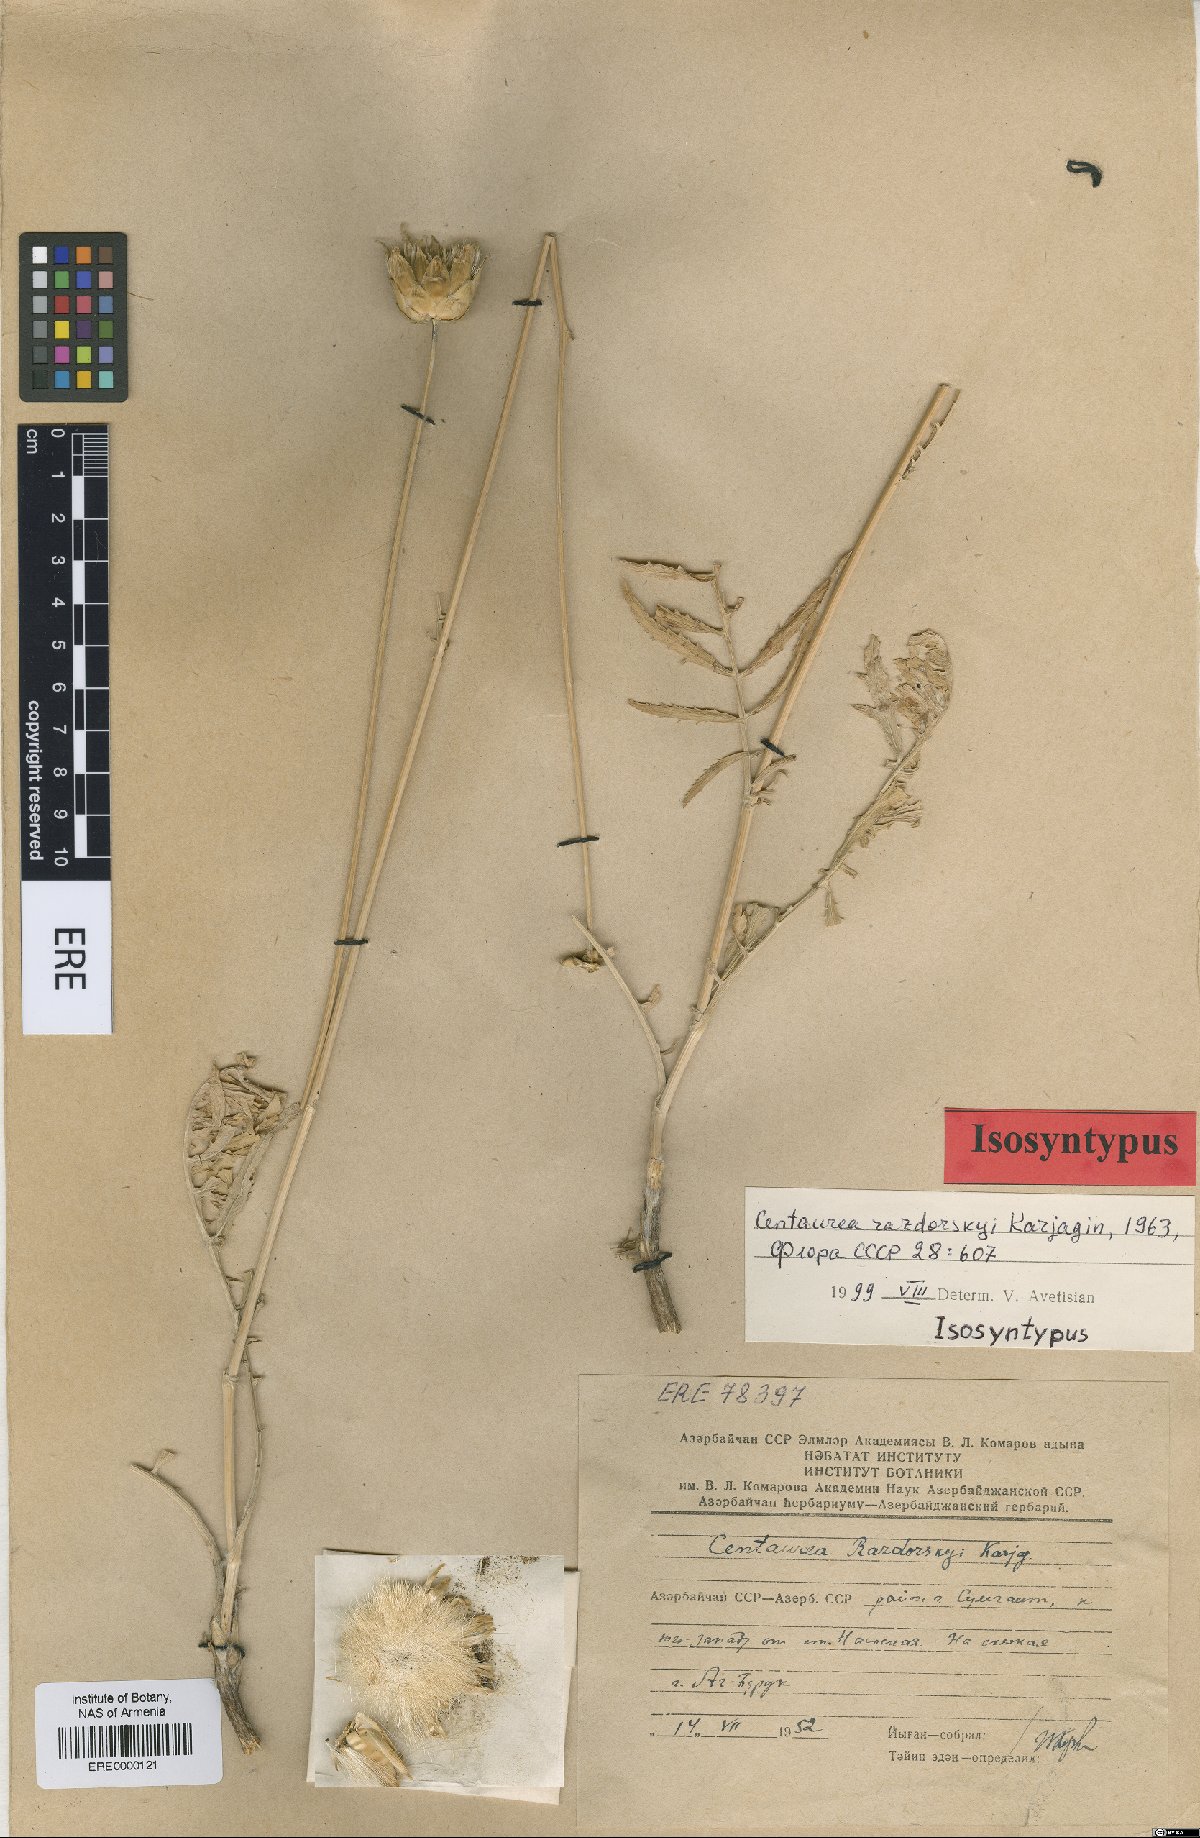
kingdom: Plantae
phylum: Tracheophyta
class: Magnoliopsida
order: Asterales
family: Asteraceae
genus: Rhaponticoides
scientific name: Rhaponticoides razdorskyi
